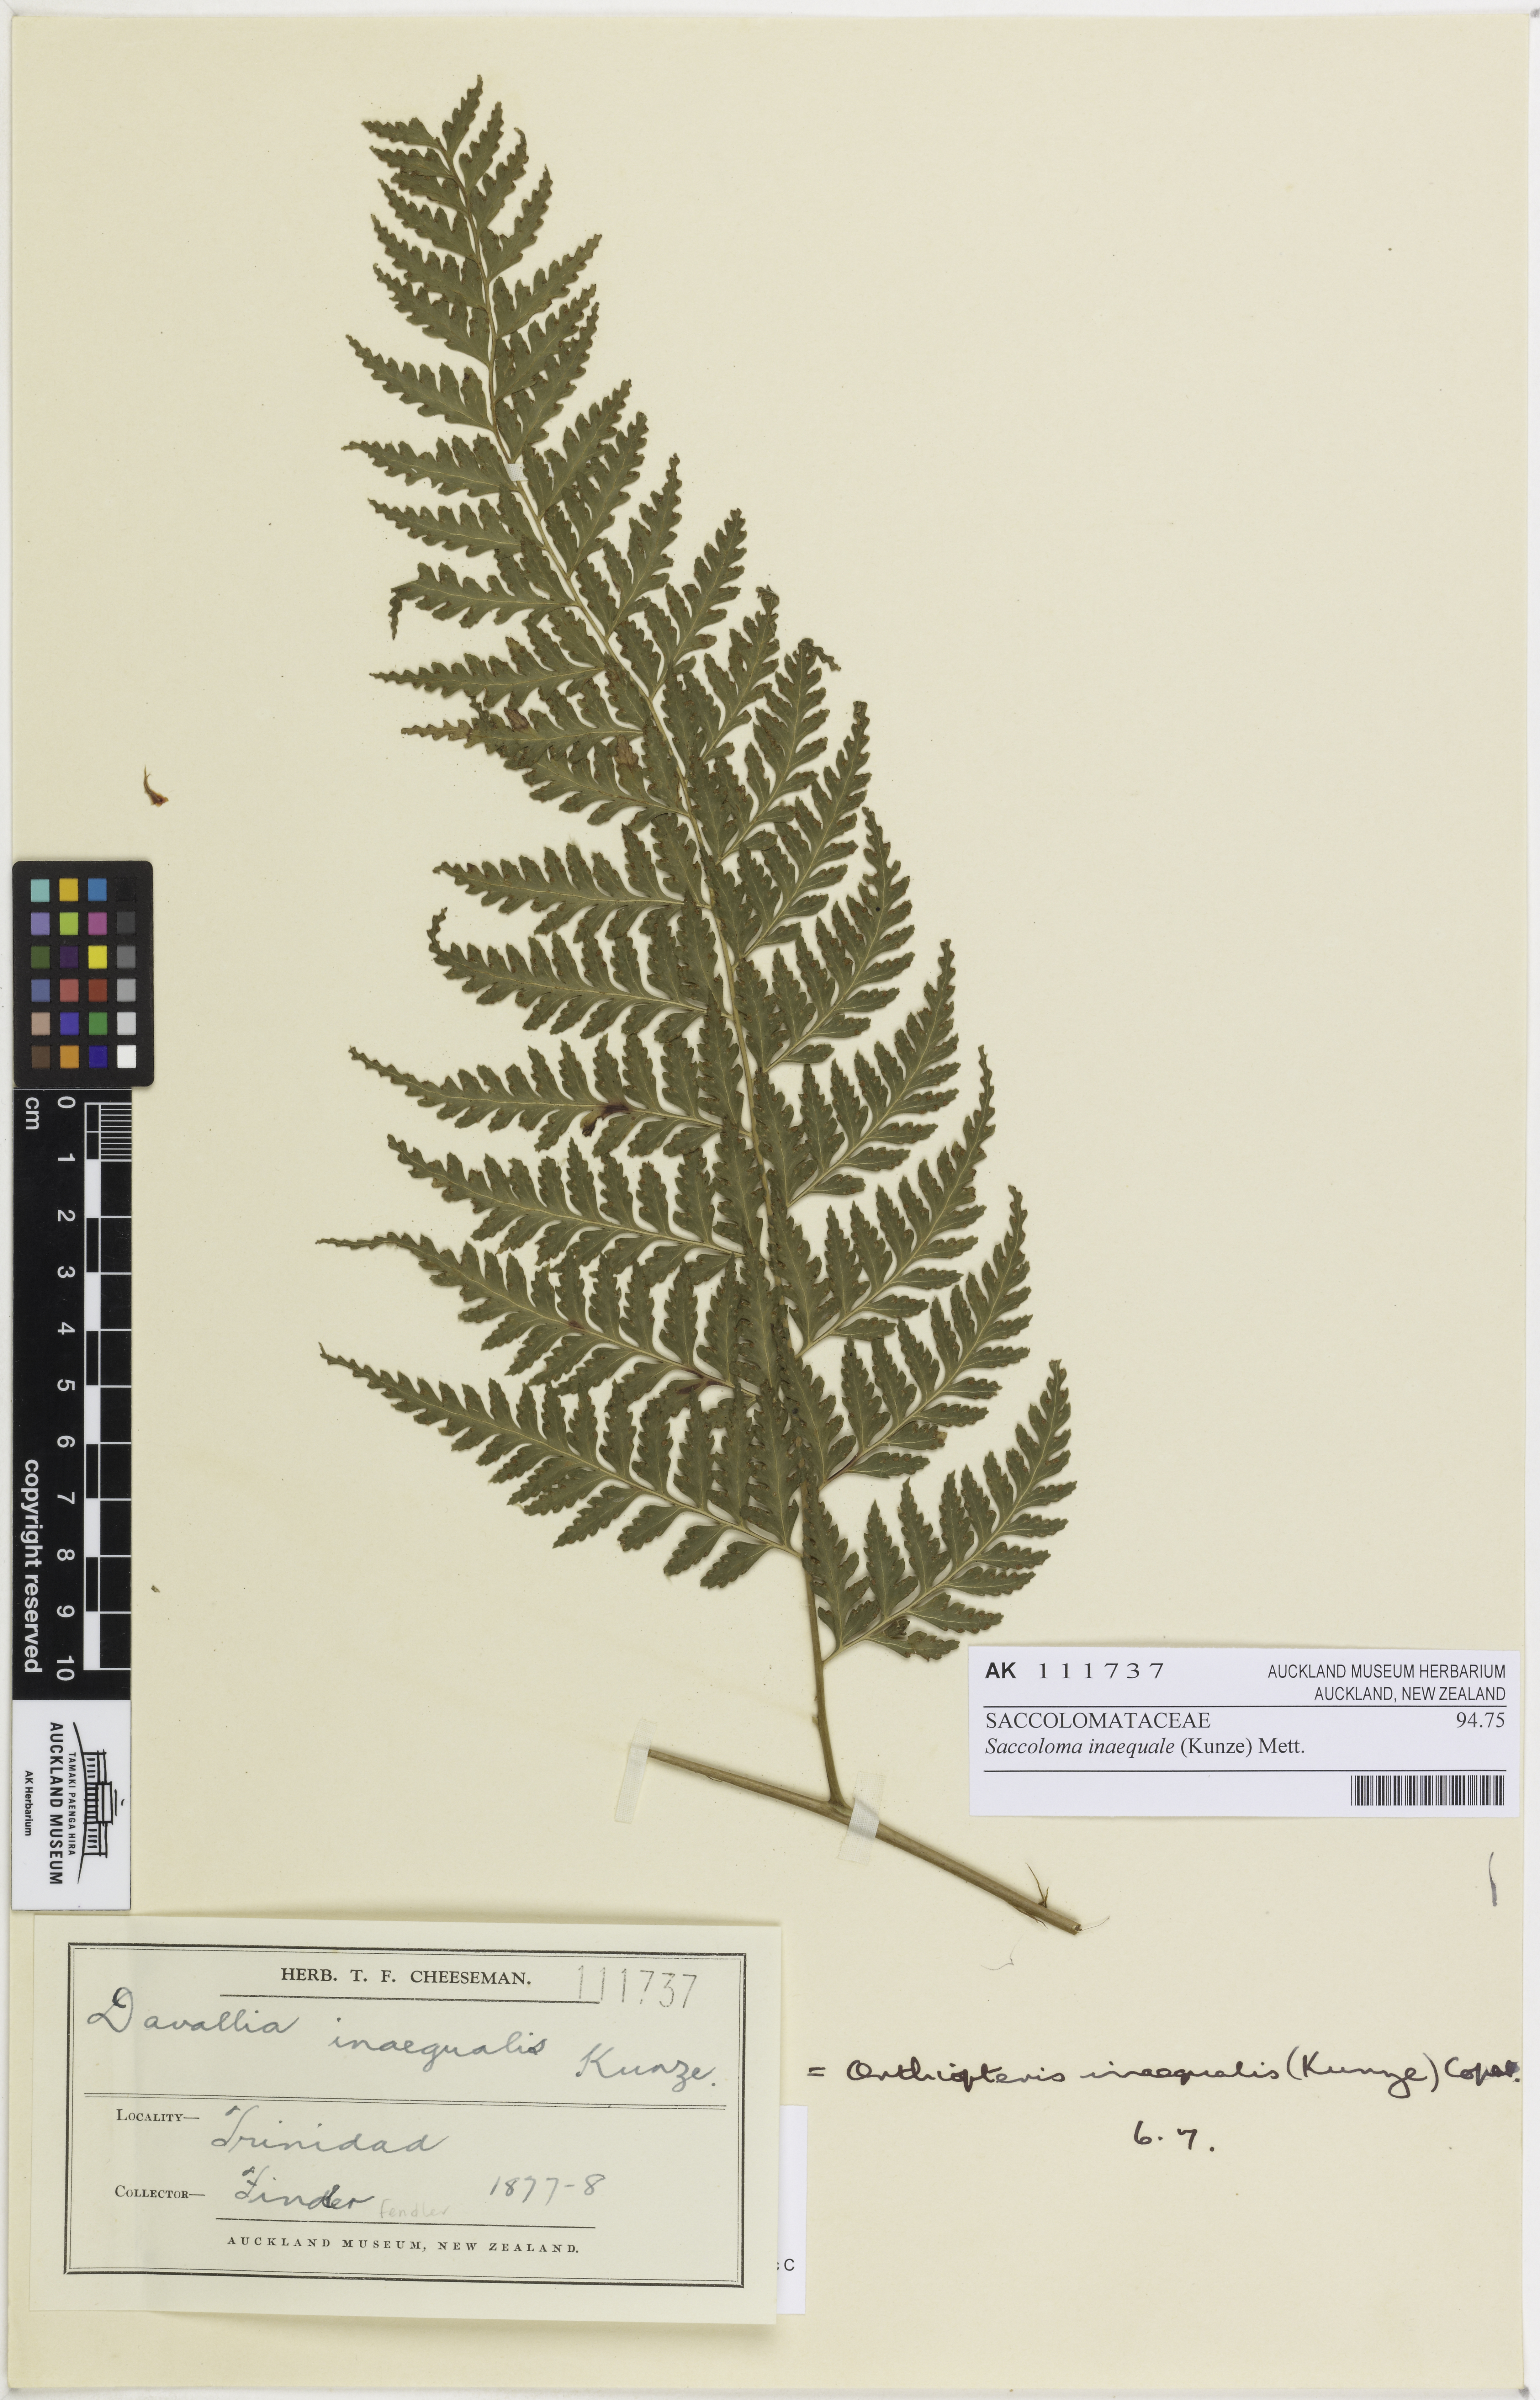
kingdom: Plantae
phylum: Tracheophyta
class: Polypodiopsida
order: Polypodiales
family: Saccolomataceae
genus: Saccoloma
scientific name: Saccoloma inaequale
